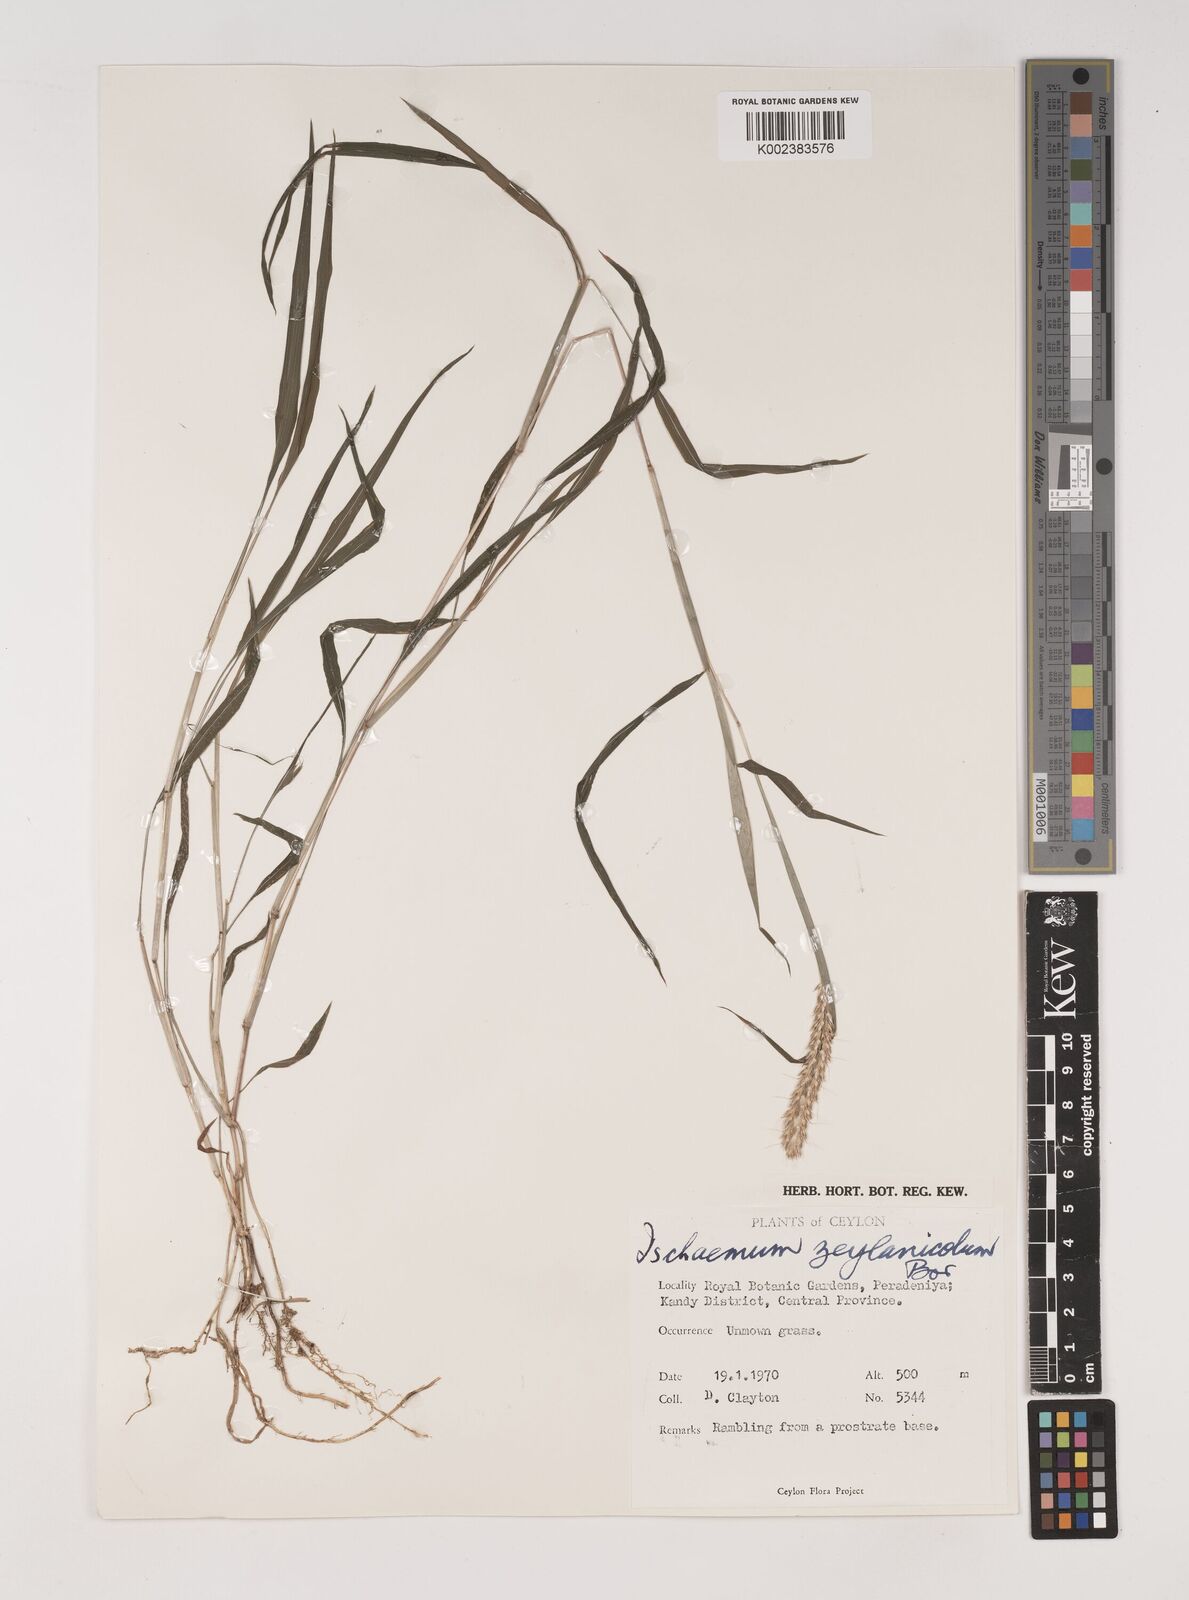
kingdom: Plantae
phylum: Tracheophyta
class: Liliopsida
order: Poales
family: Poaceae
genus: Ischaemum
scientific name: Ischaemum zeylanicola
